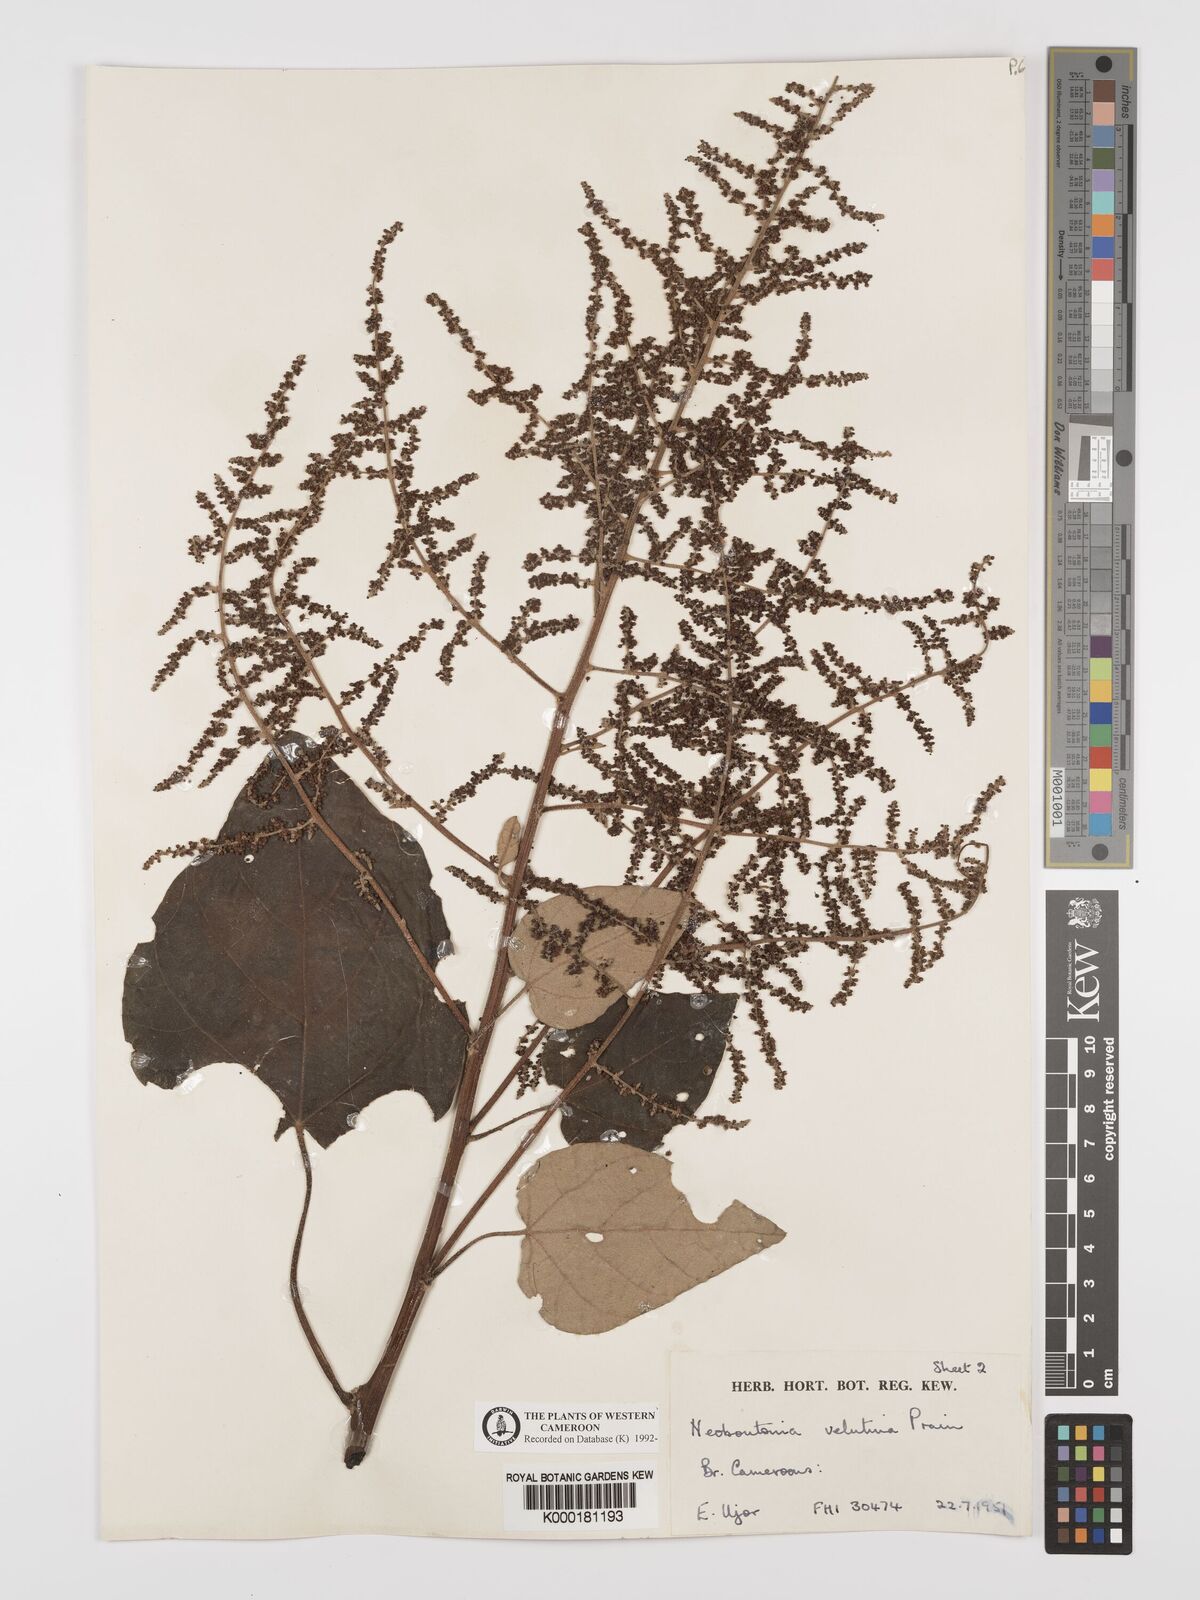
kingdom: Plantae
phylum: Tracheophyta
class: Magnoliopsida
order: Malpighiales
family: Euphorbiaceae
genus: Neoboutonia
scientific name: Neoboutonia
